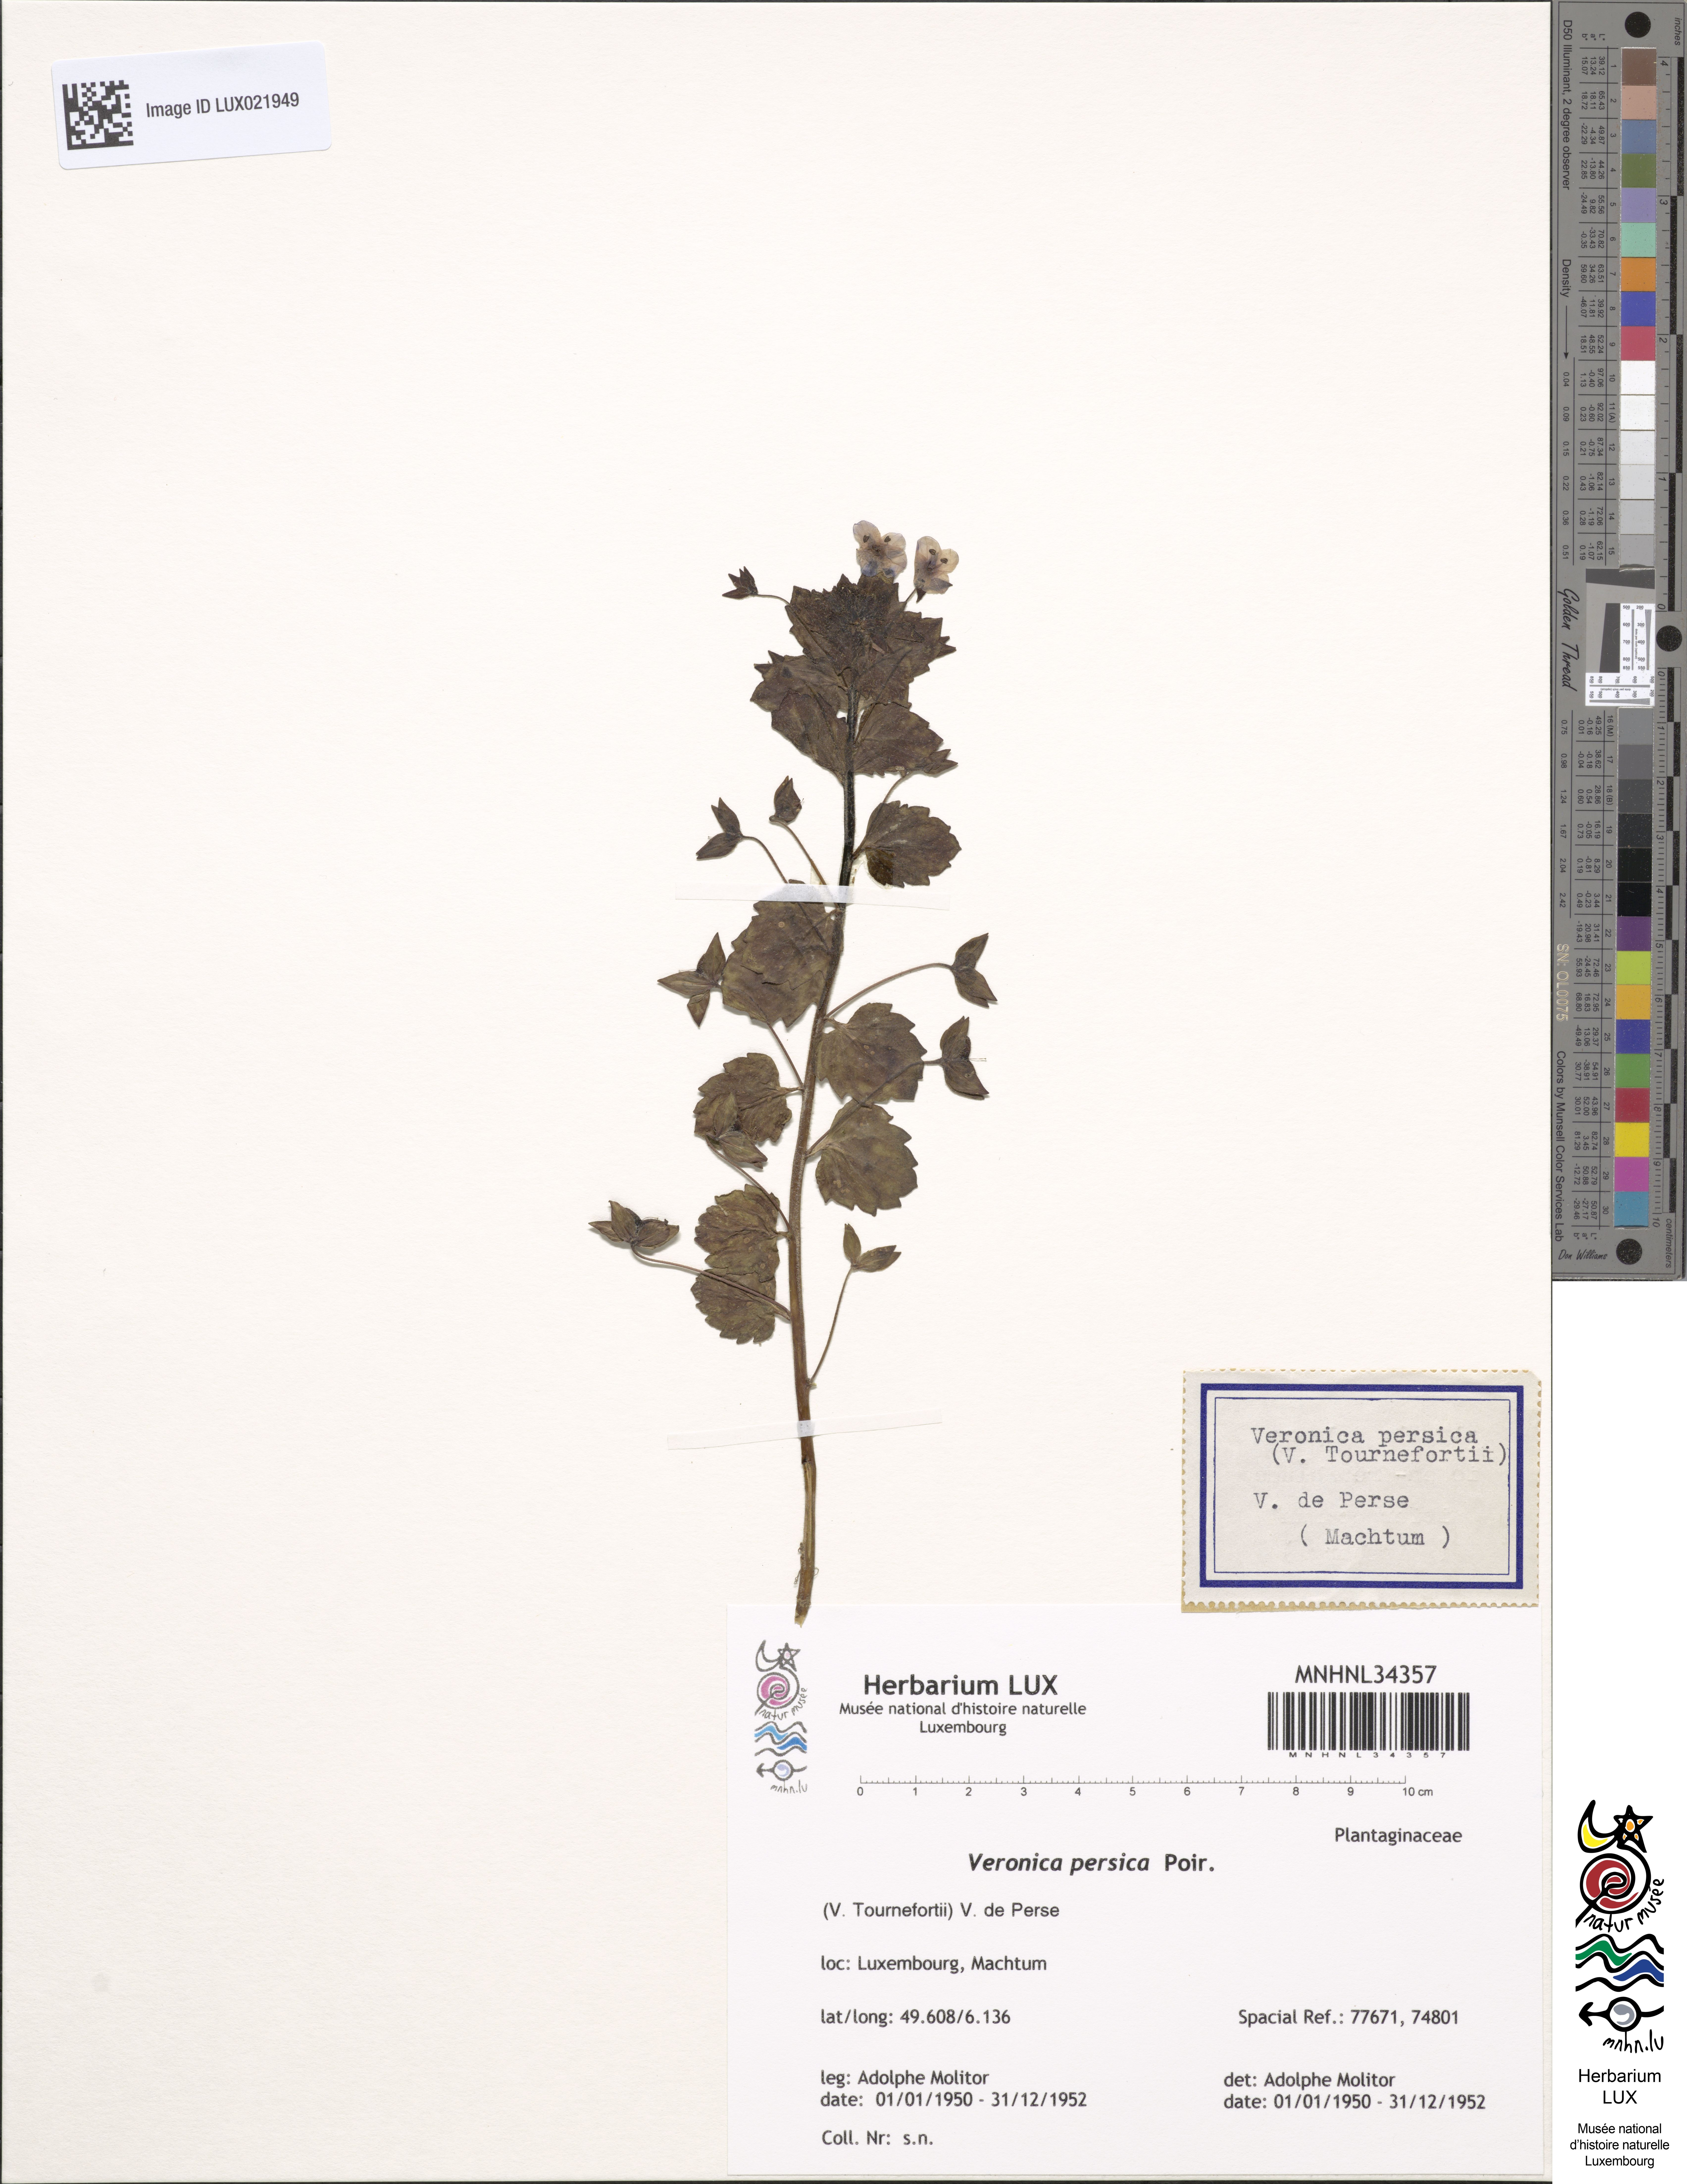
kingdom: Plantae
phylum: Tracheophyta
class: Magnoliopsida
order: Lamiales
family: Plantaginaceae
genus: Veronica
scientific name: Veronica persica
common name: Common field-speedwell
